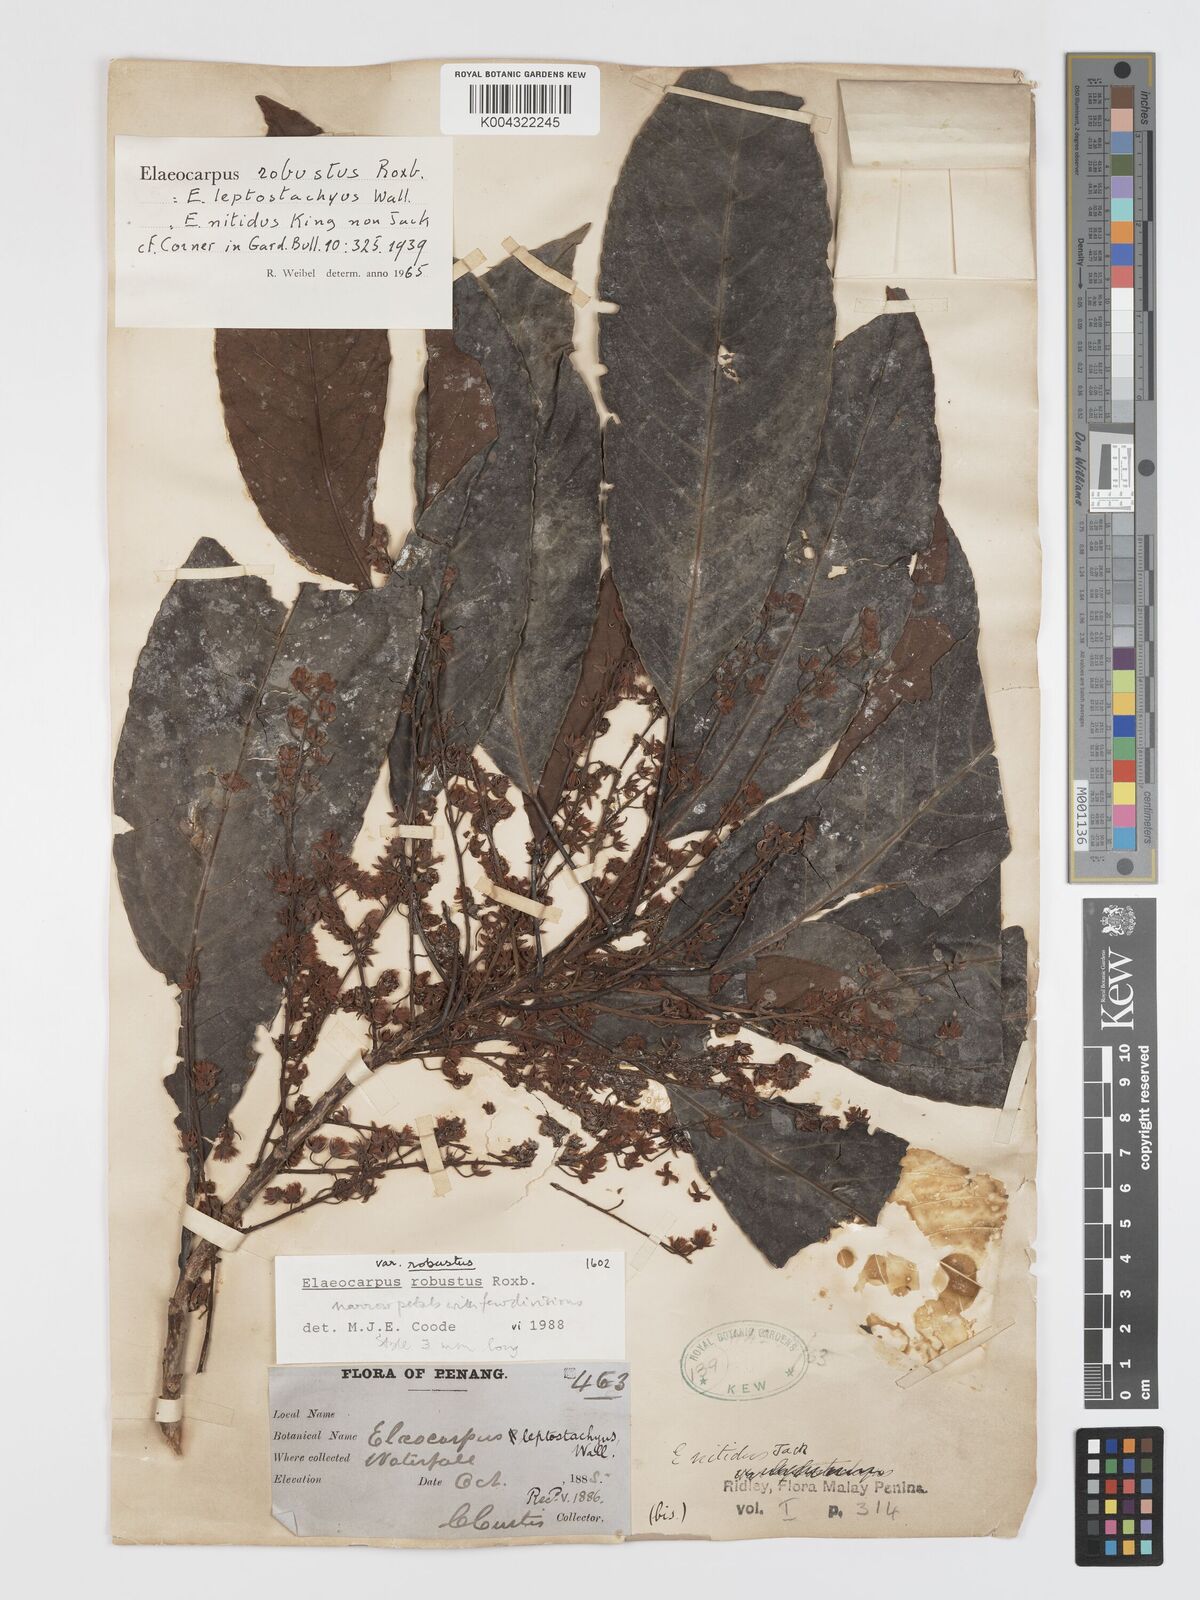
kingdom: Plantae
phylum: Tracheophyta
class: Magnoliopsida
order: Oxalidales
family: Elaeocarpaceae
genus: Elaeocarpus
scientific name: Elaeocarpus robustus
